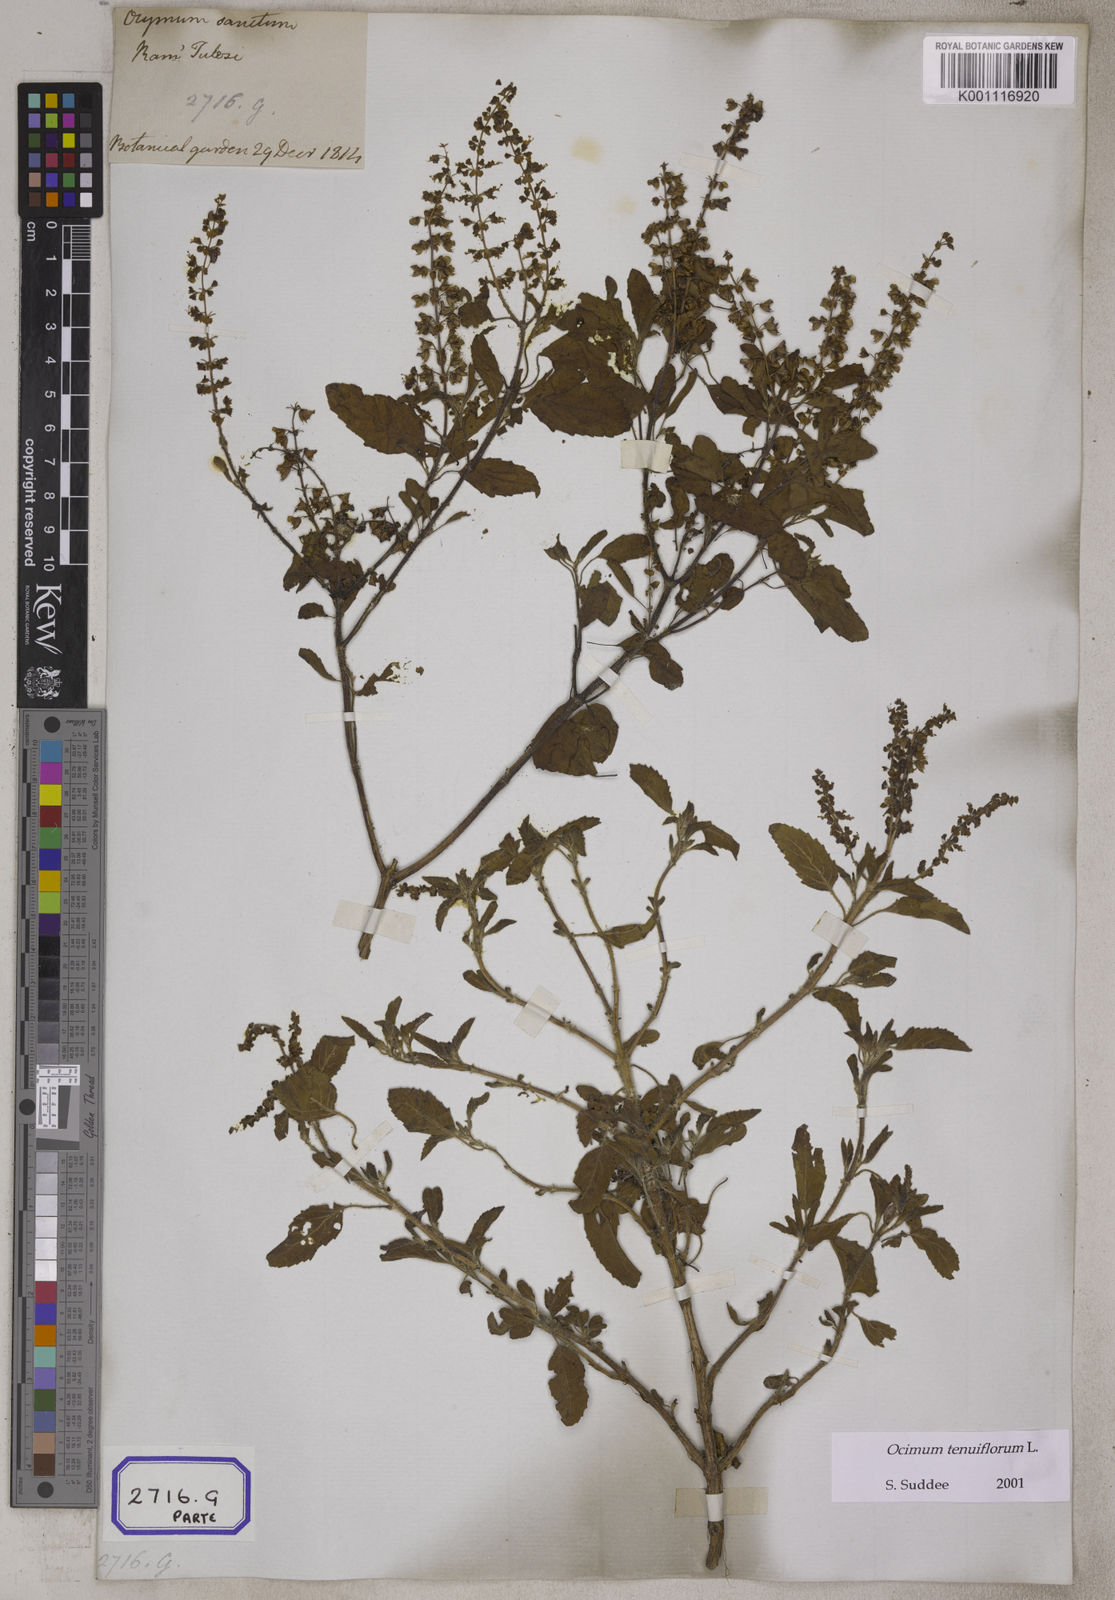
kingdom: Plantae
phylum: Tracheophyta
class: Magnoliopsida
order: Lamiales
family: Lamiaceae
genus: Ocimum
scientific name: Ocimum tenuiflorum
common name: Sacred basil
